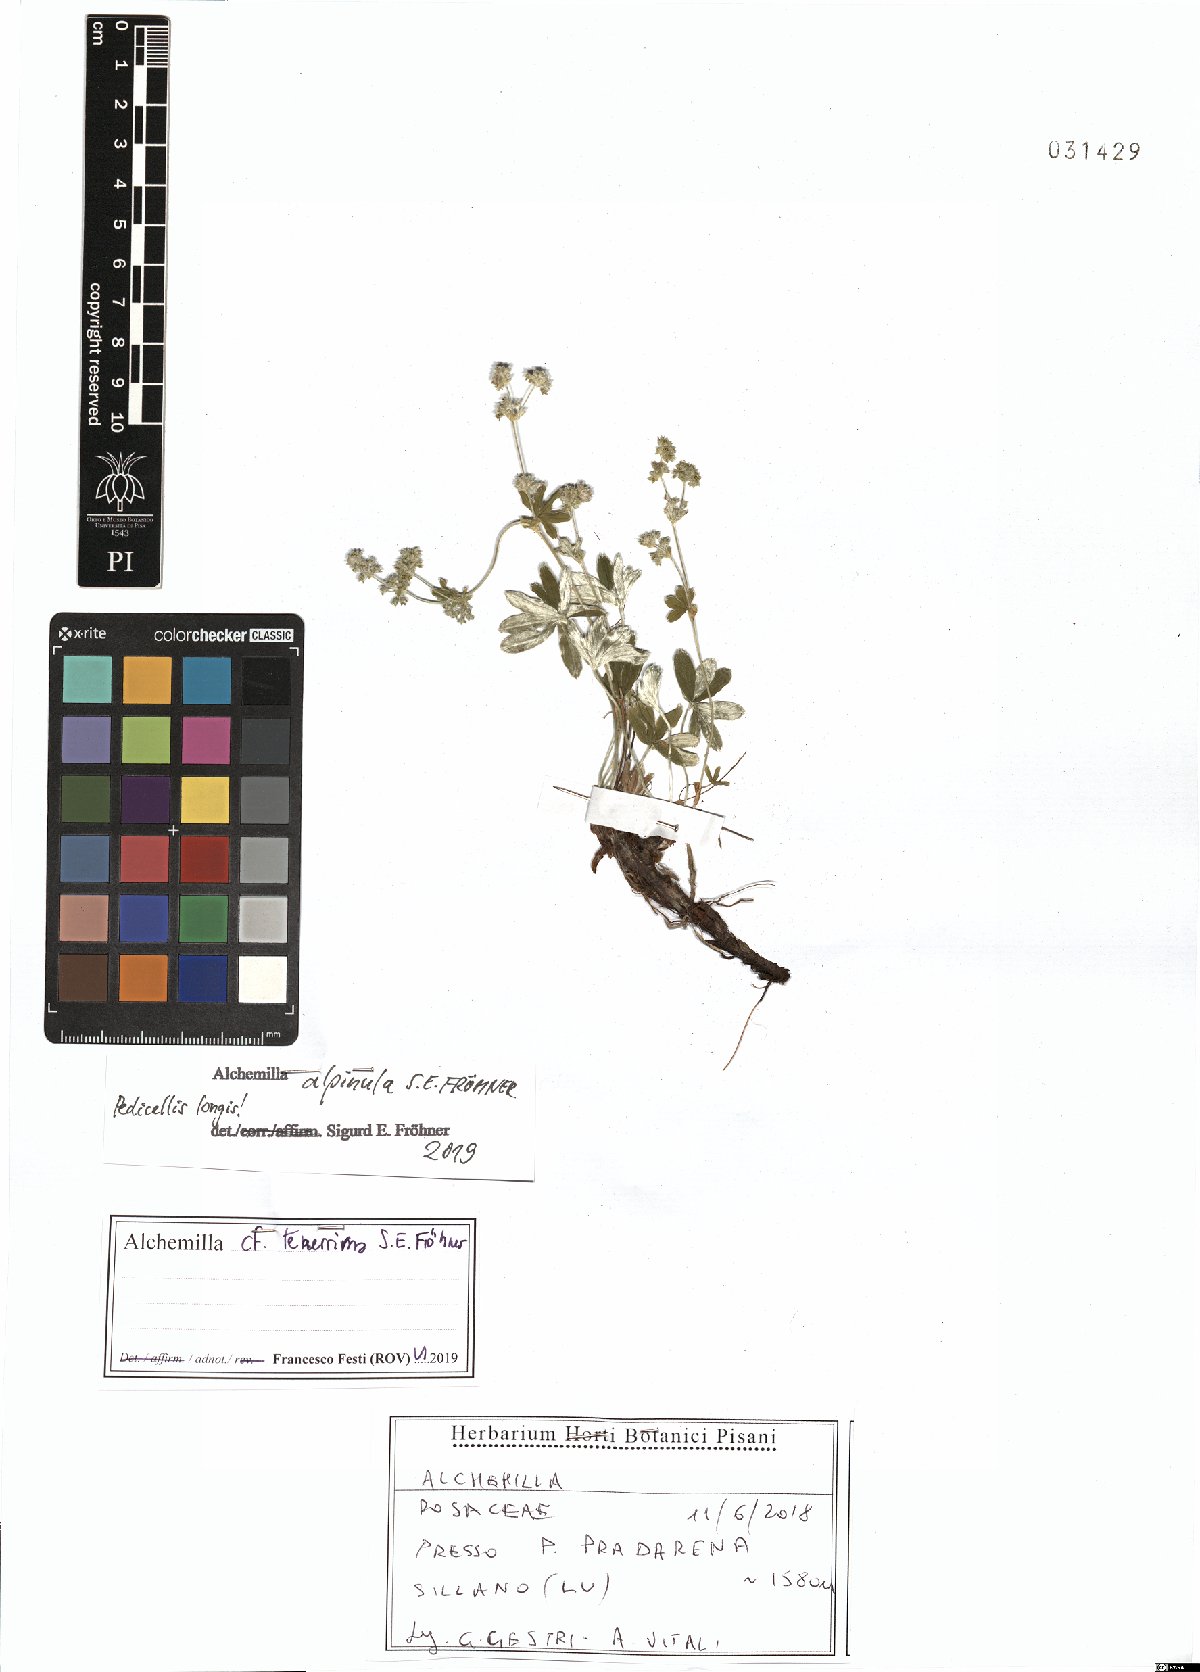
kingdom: Plantae
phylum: Tracheophyta
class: Magnoliopsida
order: Rosales
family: Rosaceae
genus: Alchemilla
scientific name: Alchemilla alpinula
